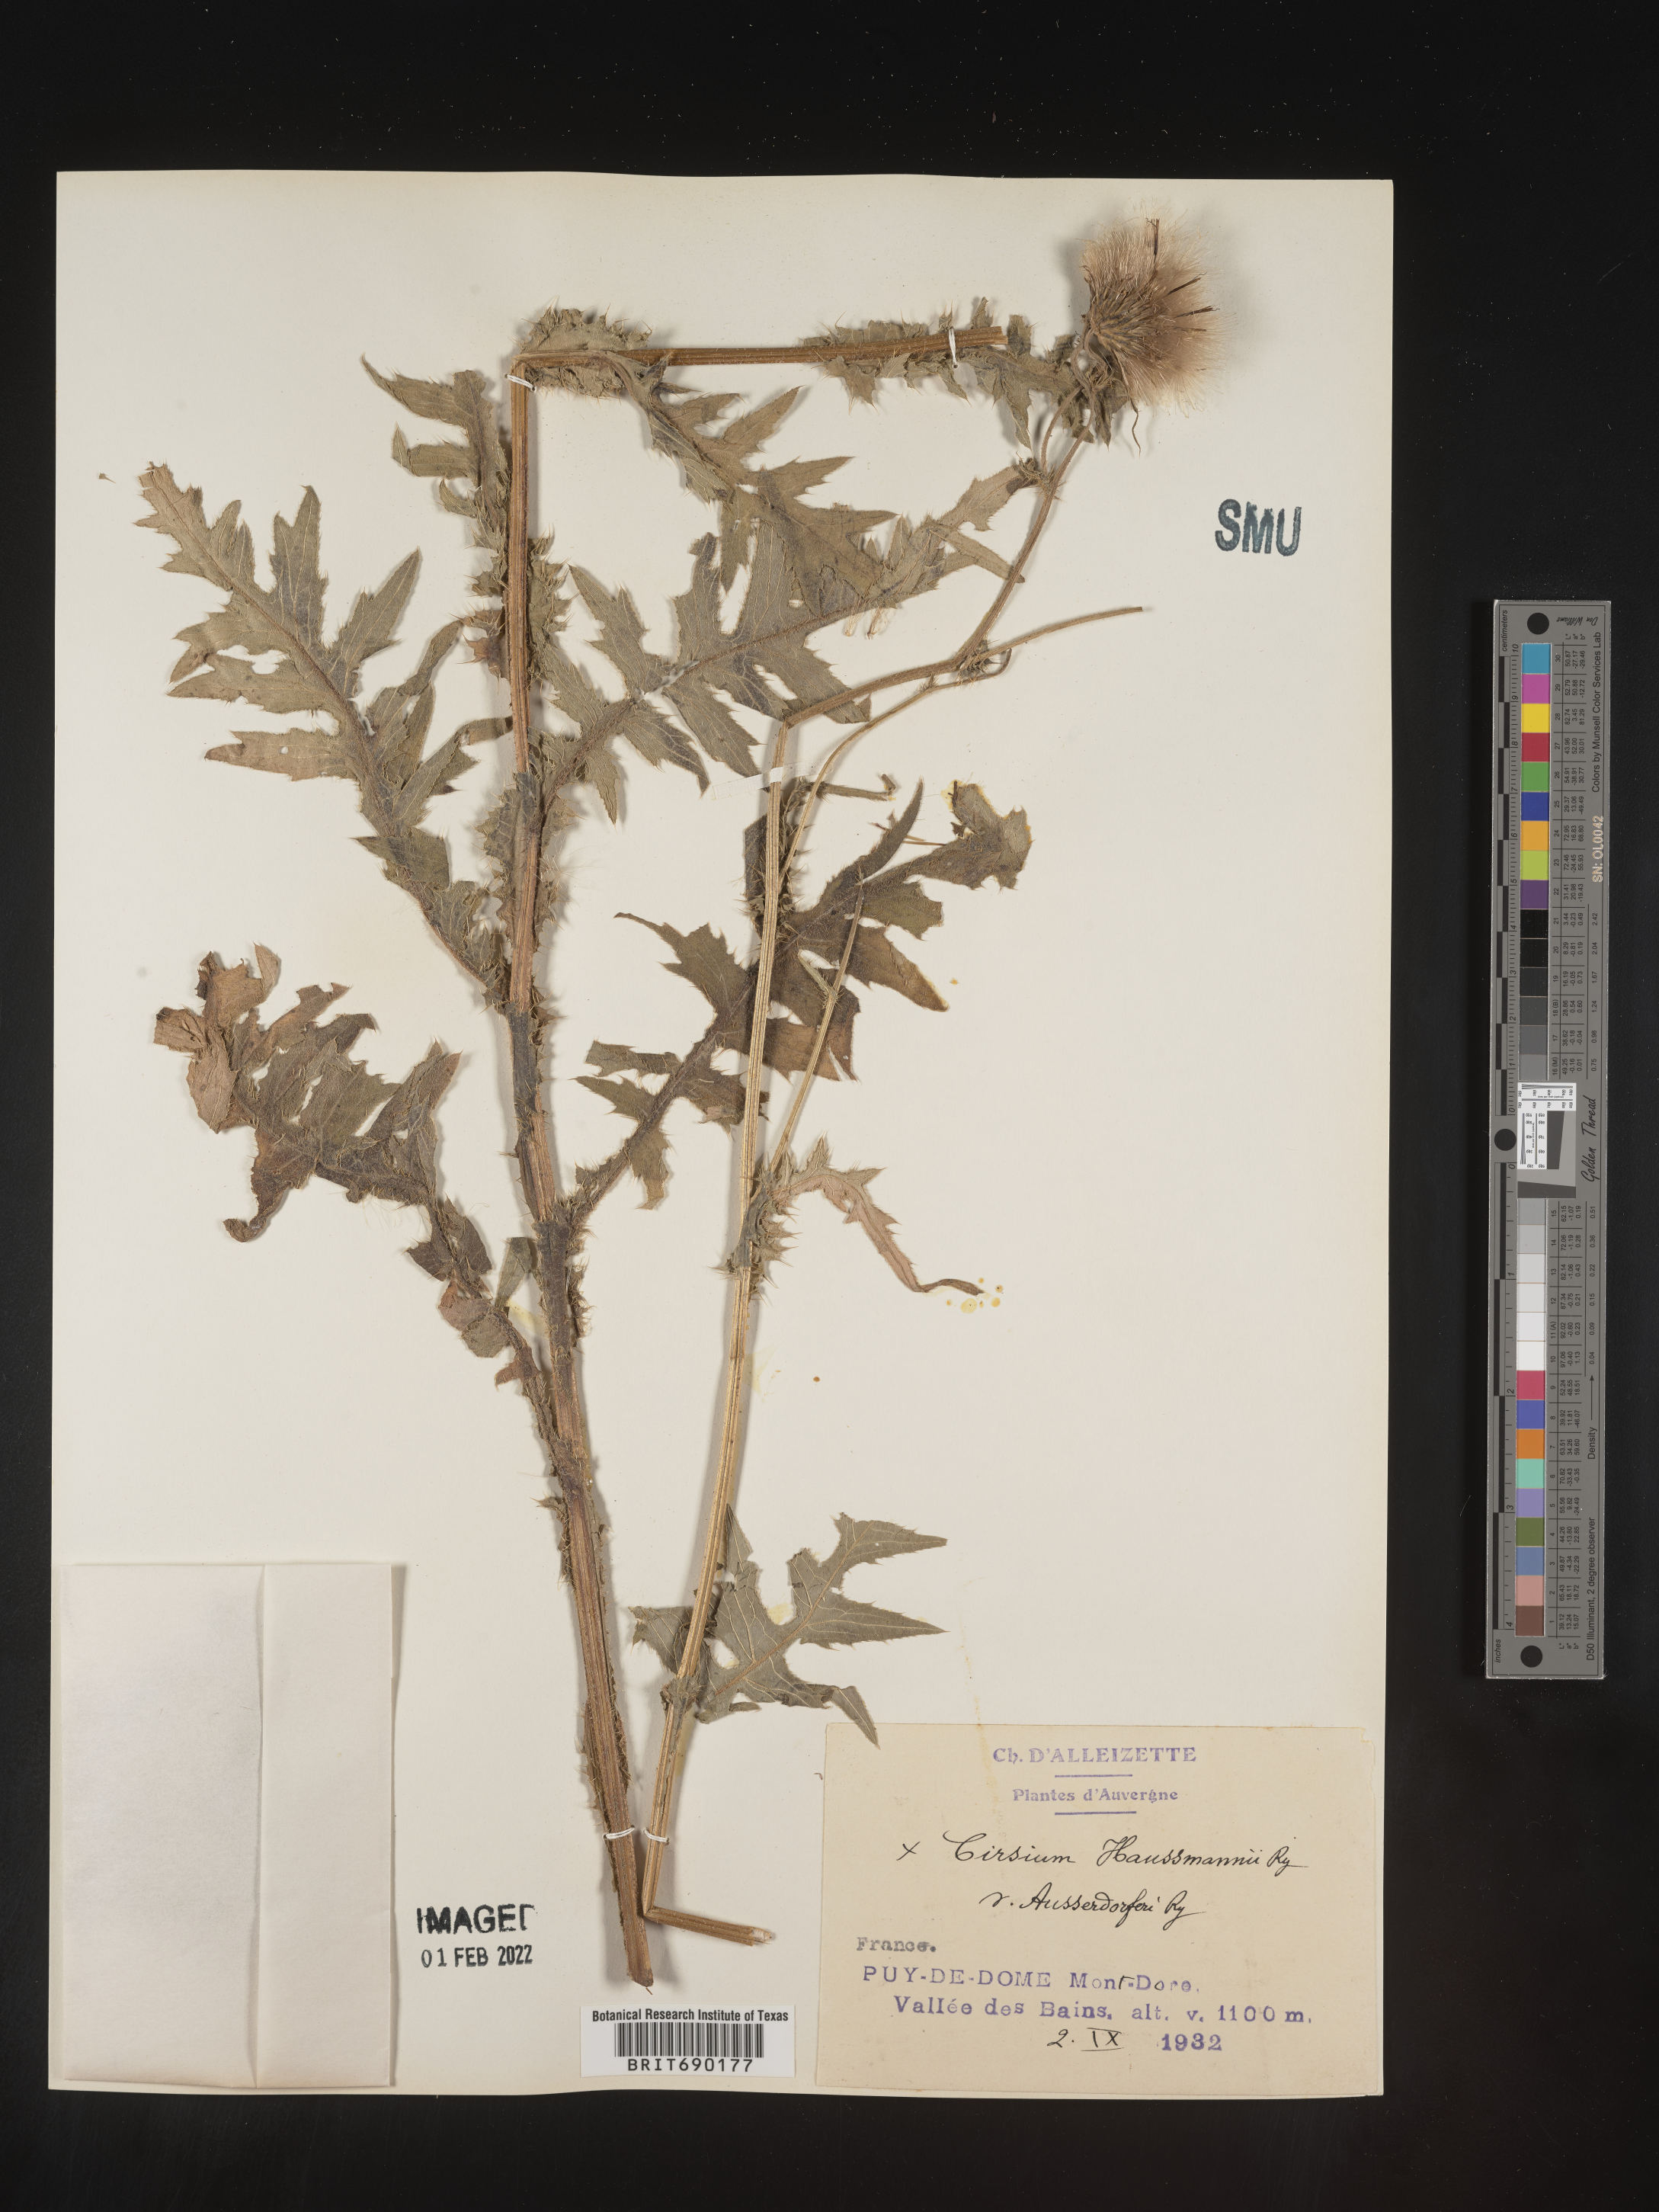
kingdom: Plantae
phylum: Tracheophyta
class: Magnoliopsida
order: Asterales
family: Asteraceae
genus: Cirsium
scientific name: Cirsium
